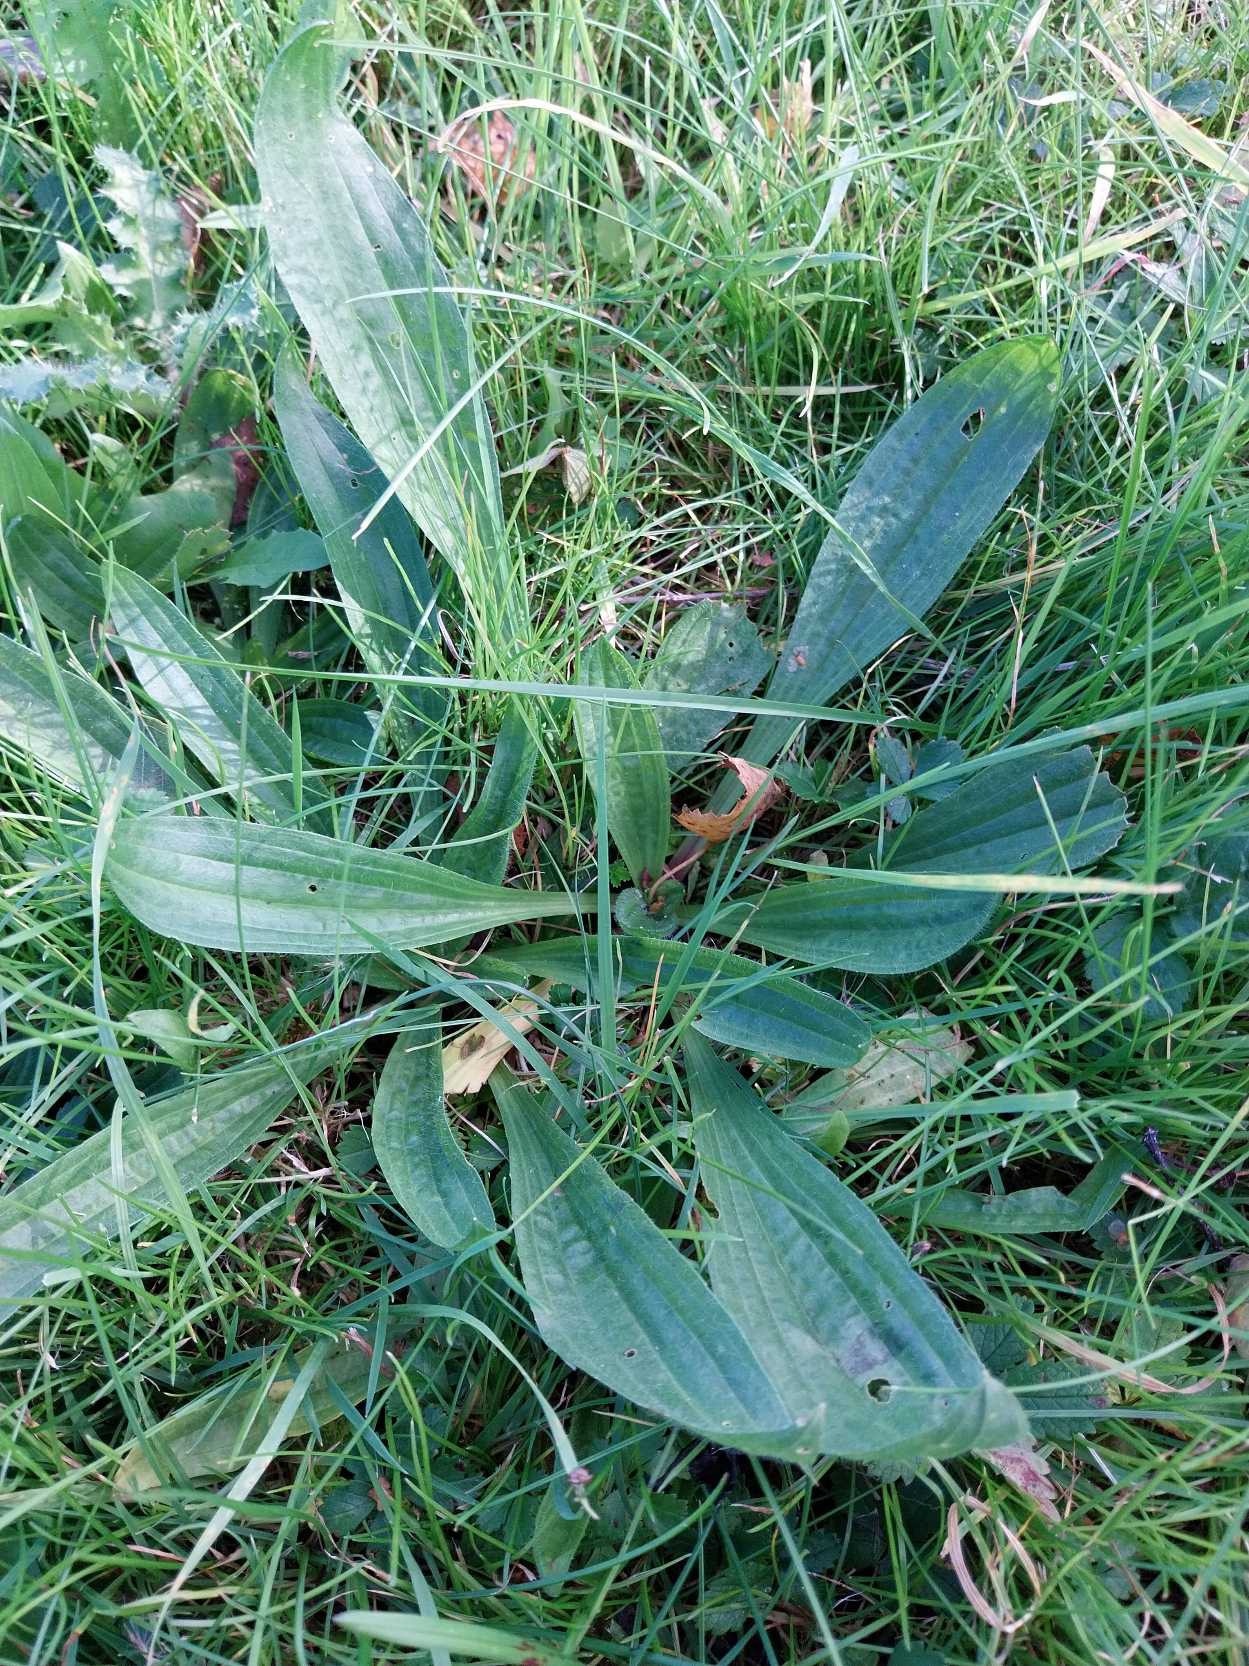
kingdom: Plantae
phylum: Tracheophyta
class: Magnoliopsida
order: Lamiales
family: Plantaginaceae
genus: Plantago
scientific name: Plantago lanceolata
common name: Lancet-vejbred
